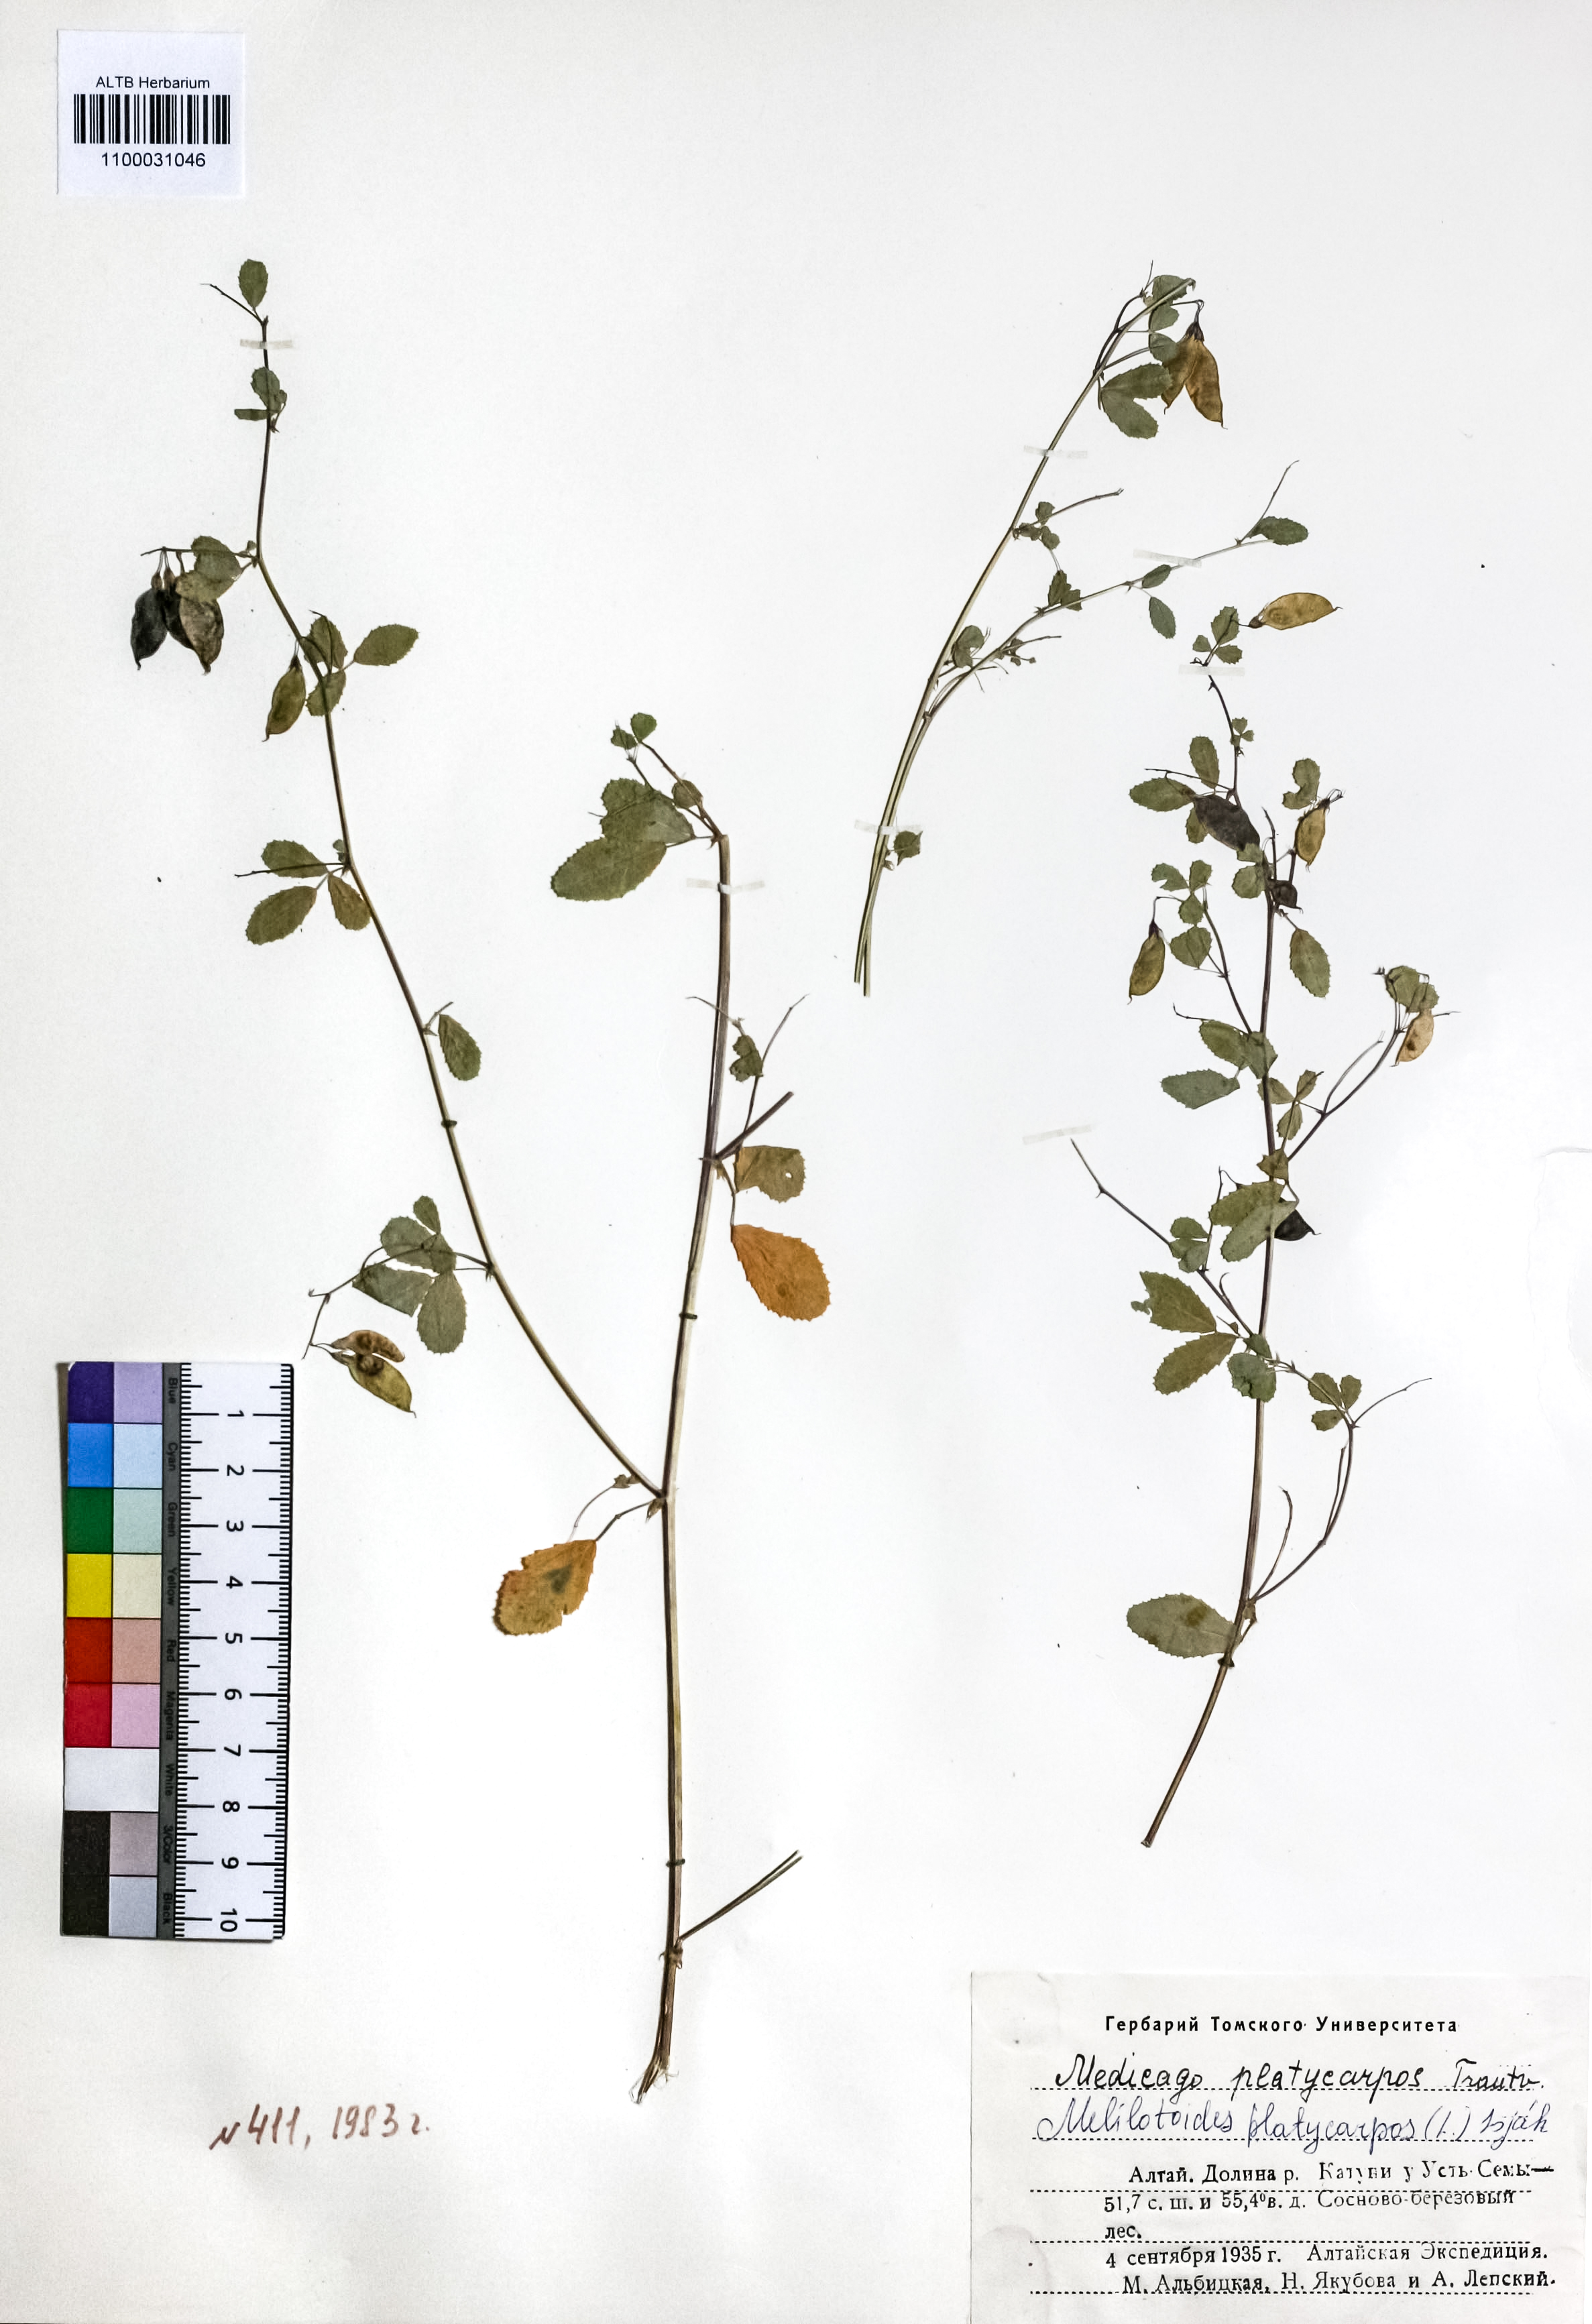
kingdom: Plantae
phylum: Tracheophyta
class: Magnoliopsida
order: Fabales
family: Fabaceae
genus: Medicago
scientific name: Medicago platycarpos
